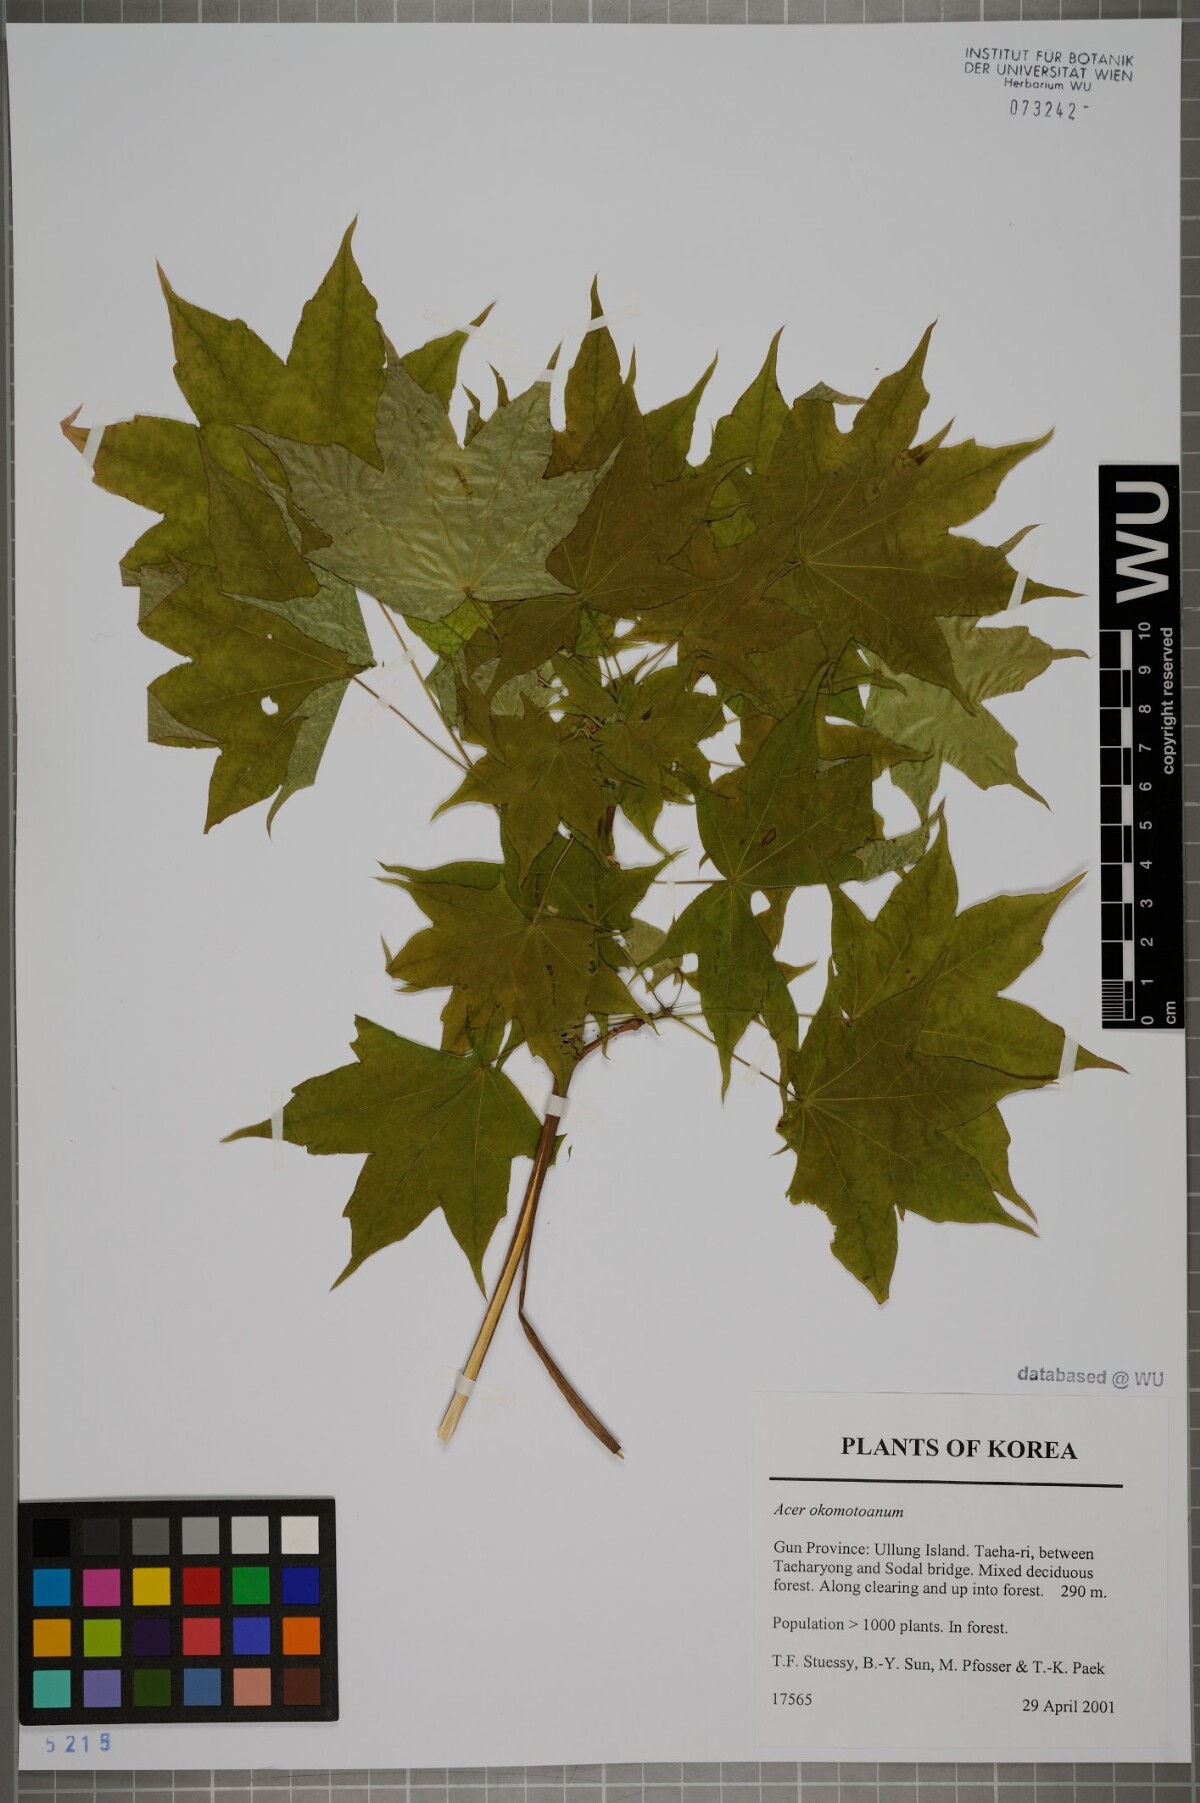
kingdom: Plantae
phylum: Tracheophyta
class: Magnoliopsida
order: Sapindales
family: Sapindaceae
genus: Acer
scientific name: Acer pictum
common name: The painted maple
